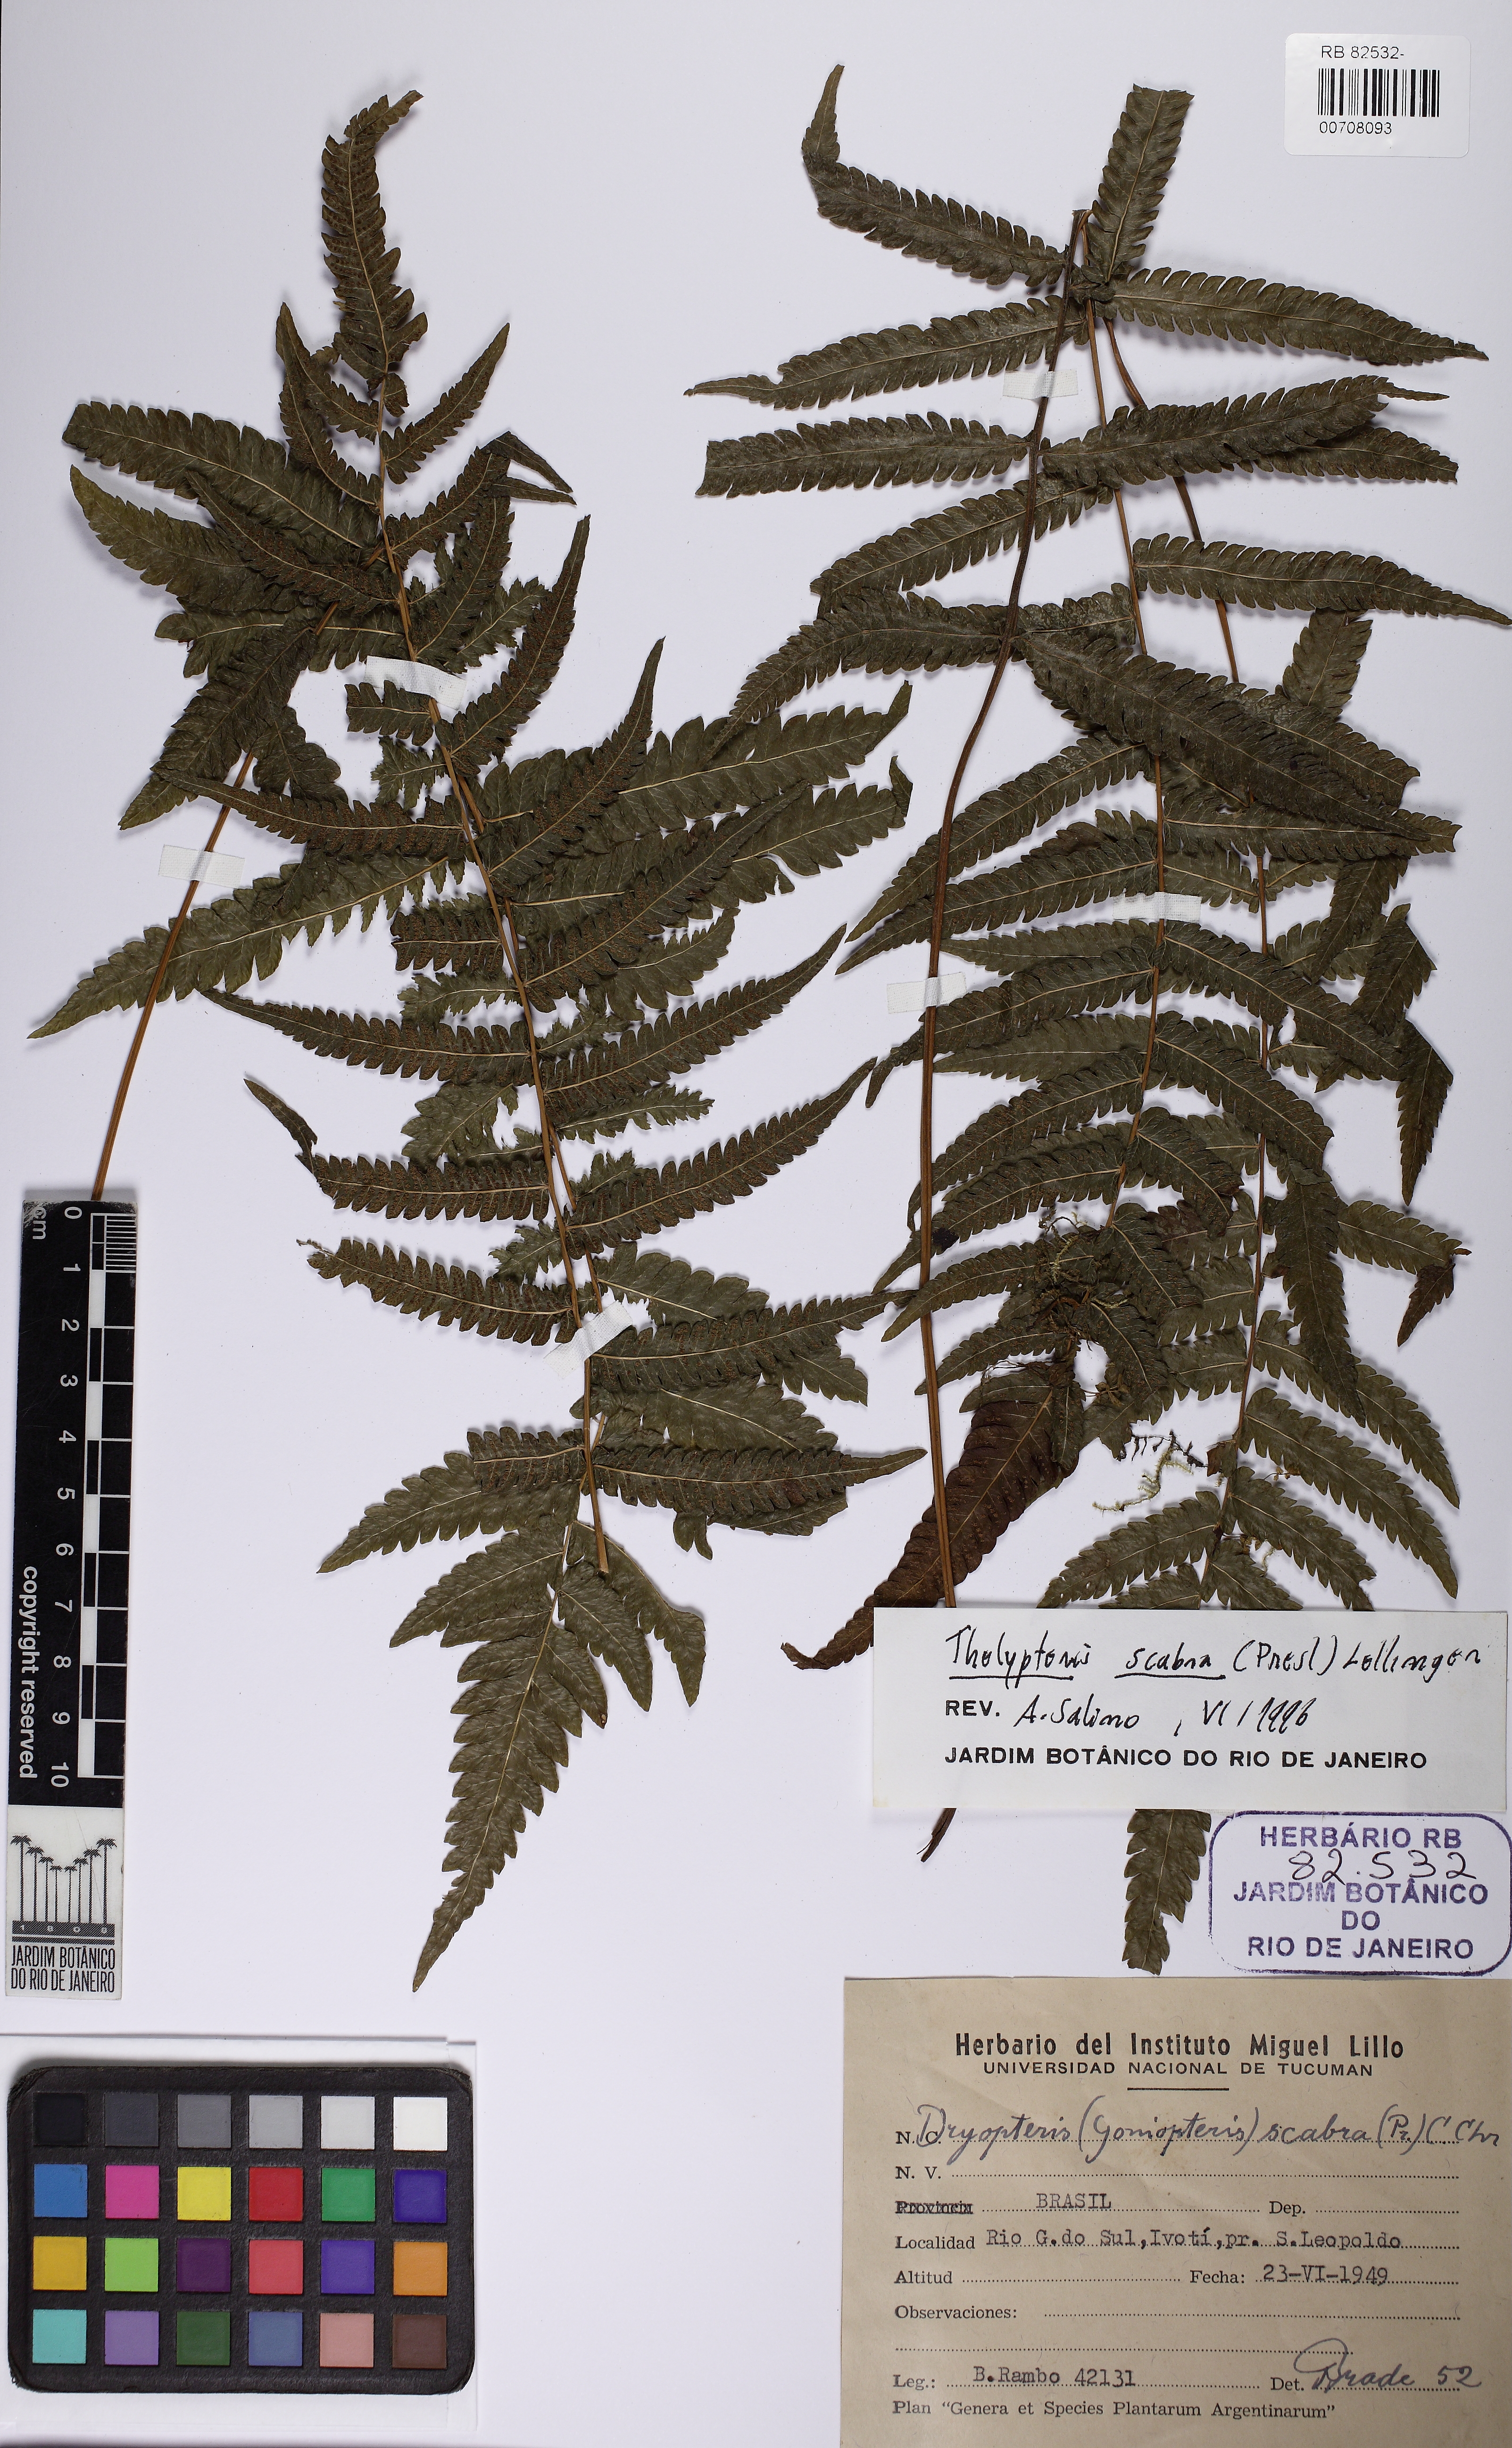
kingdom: Plantae
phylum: Tracheophyta
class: Polypodiopsida
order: Polypodiales
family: Thelypteridaceae
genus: Goniopteris
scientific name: Goniopteris scabra
